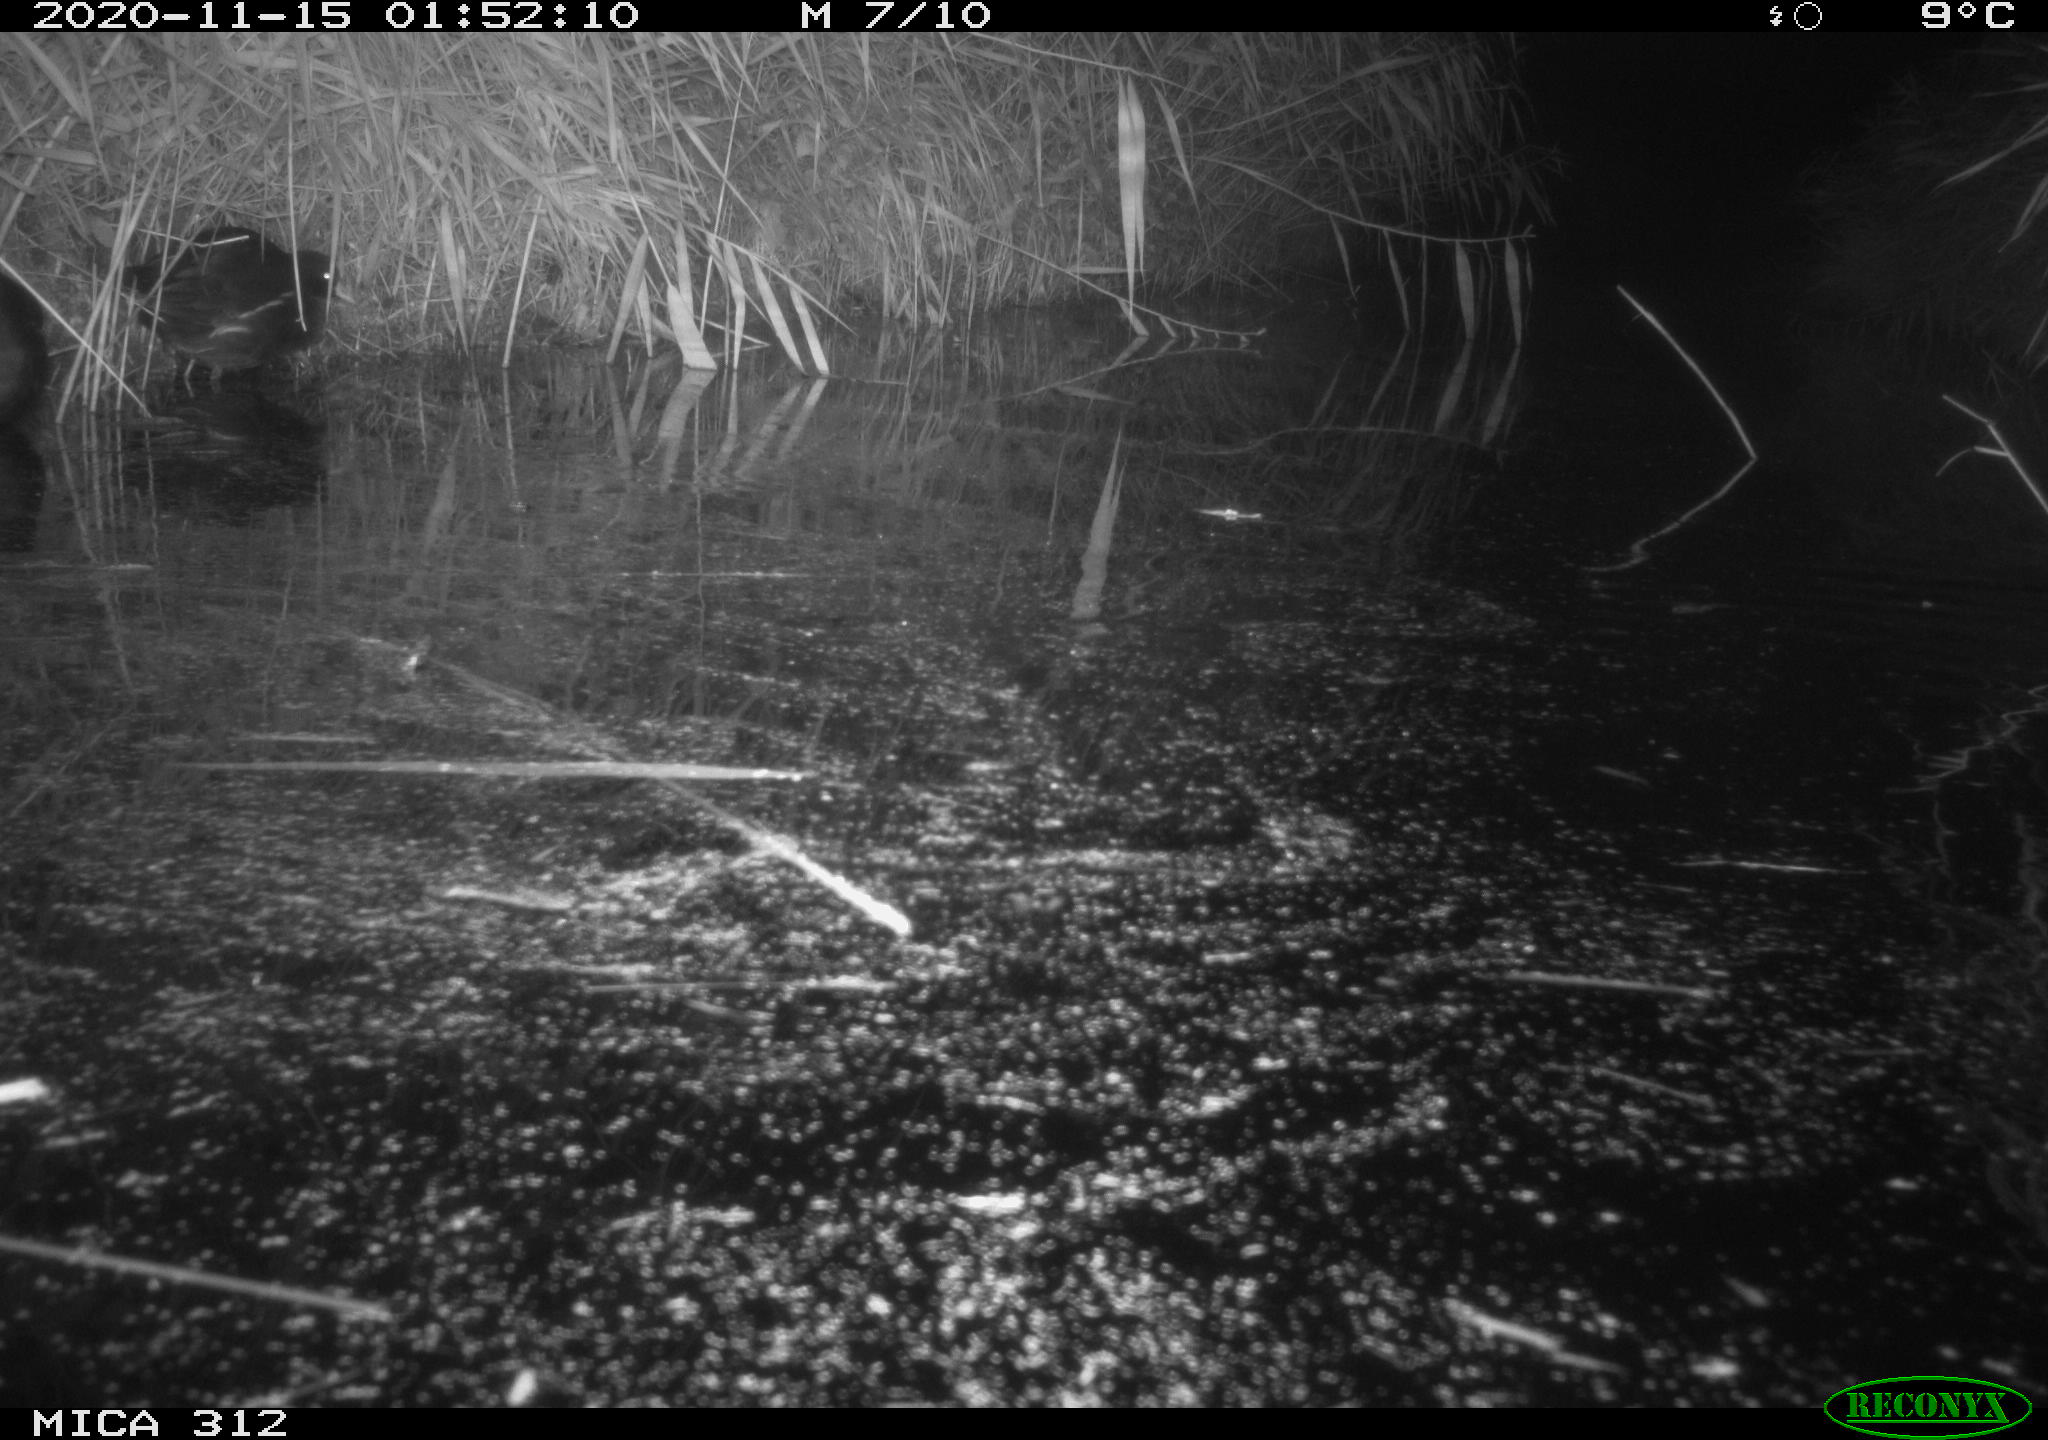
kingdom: Animalia
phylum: Chordata
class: Aves
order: Gruiformes
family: Rallidae
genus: Gallinula
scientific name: Gallinula chloropus
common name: Common moorhen
